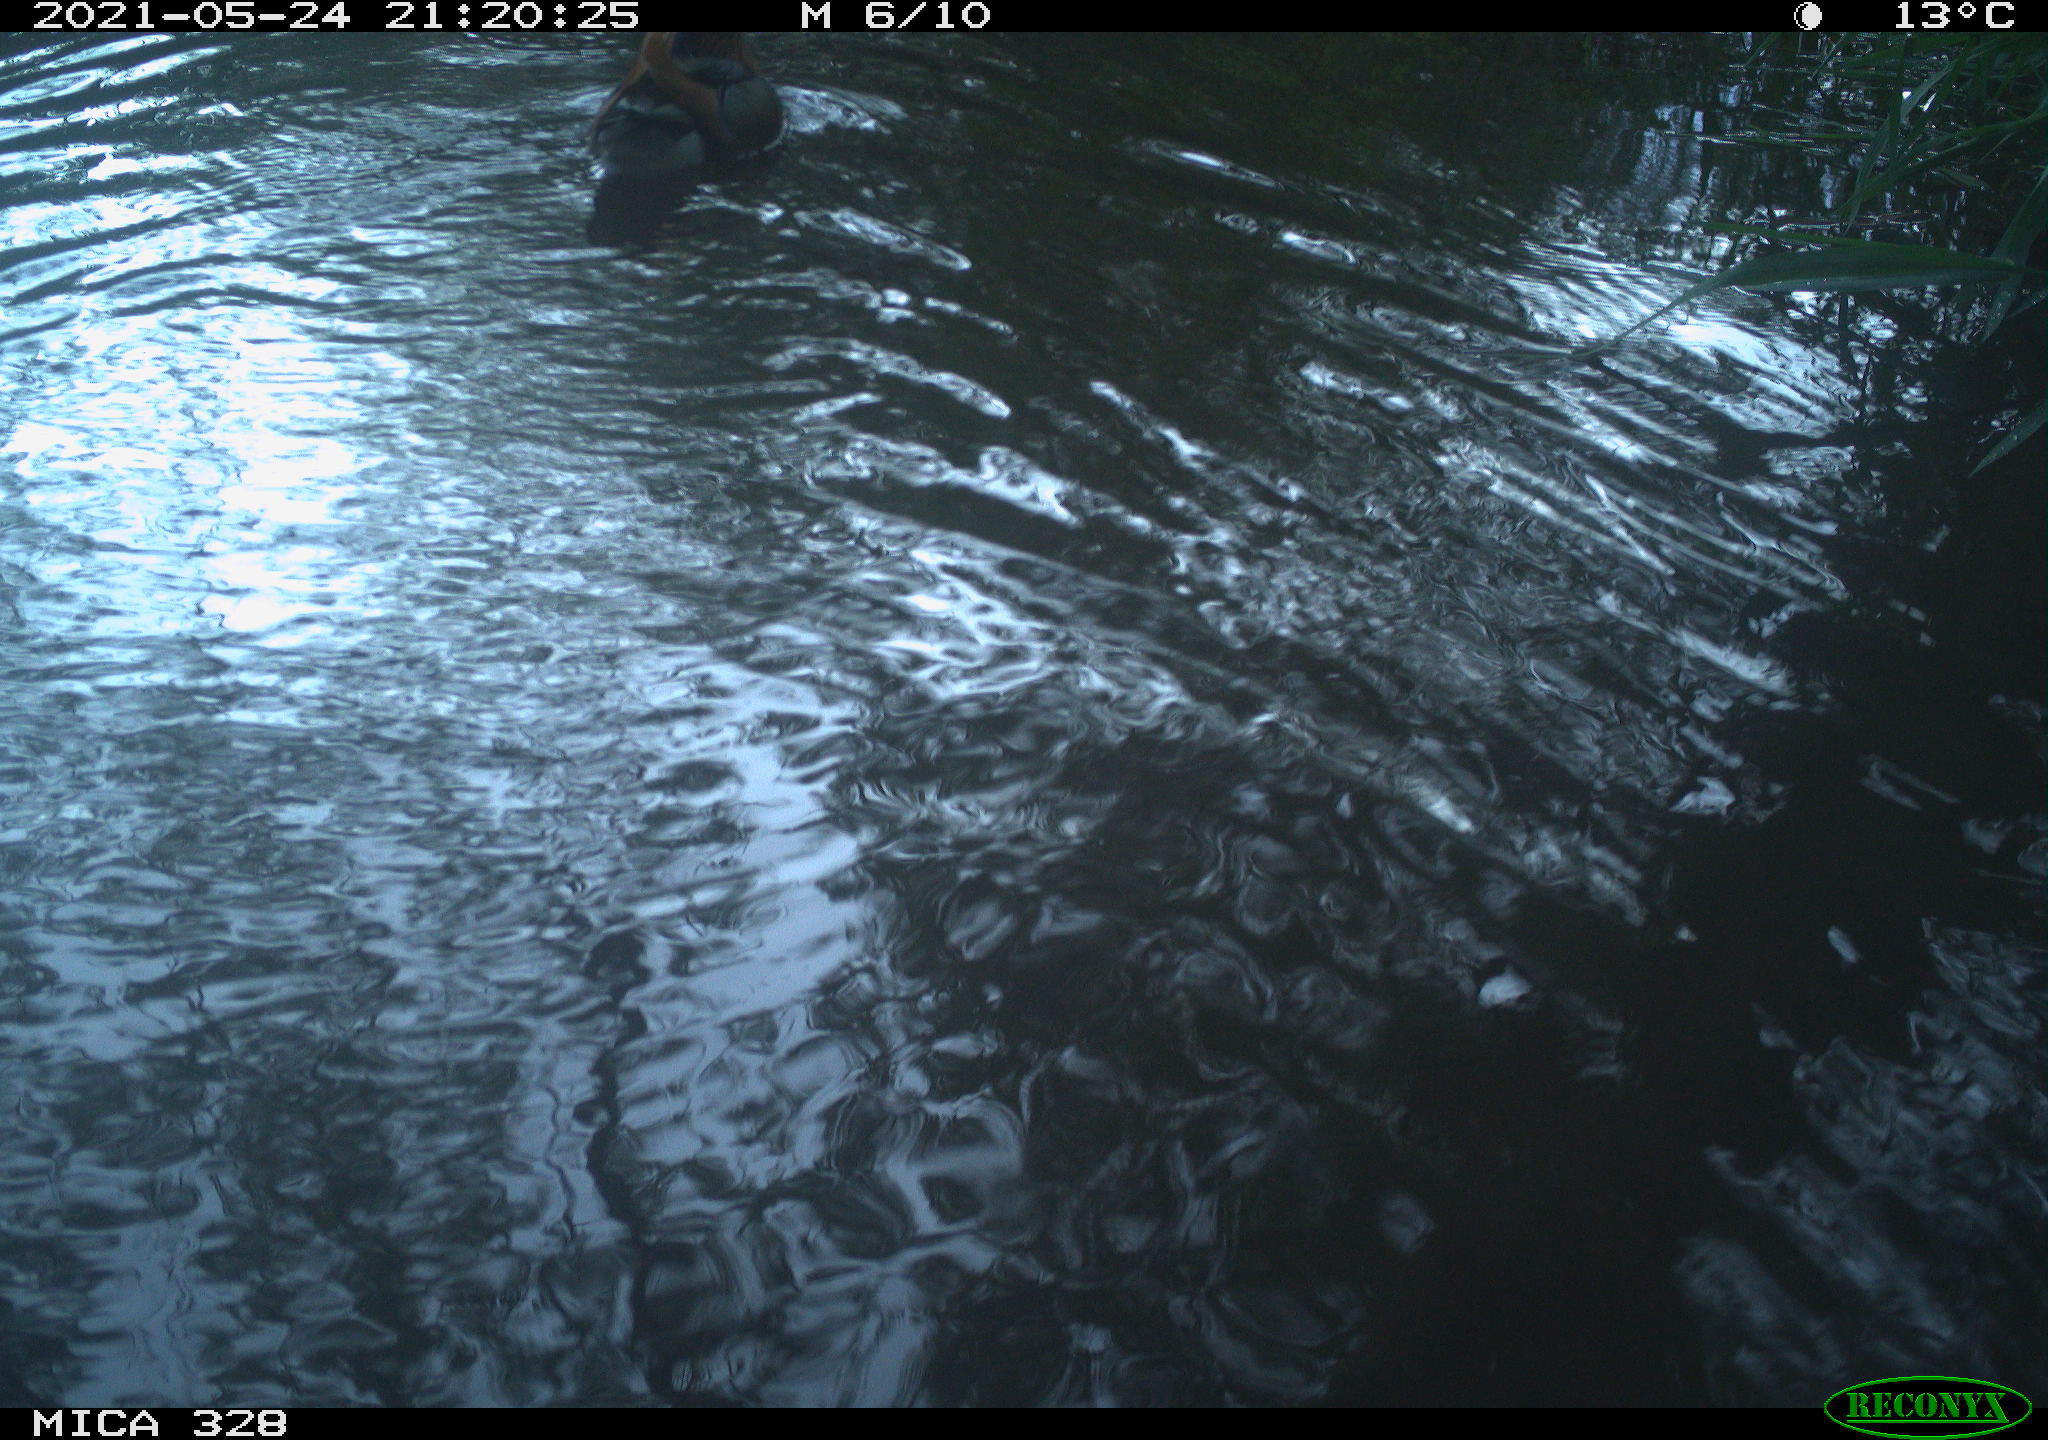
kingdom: Animalia
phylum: Chordata
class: Aves
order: Anseriformes
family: Anatidae
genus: Aix
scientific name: Aix galericulata
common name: Mandarin duck
